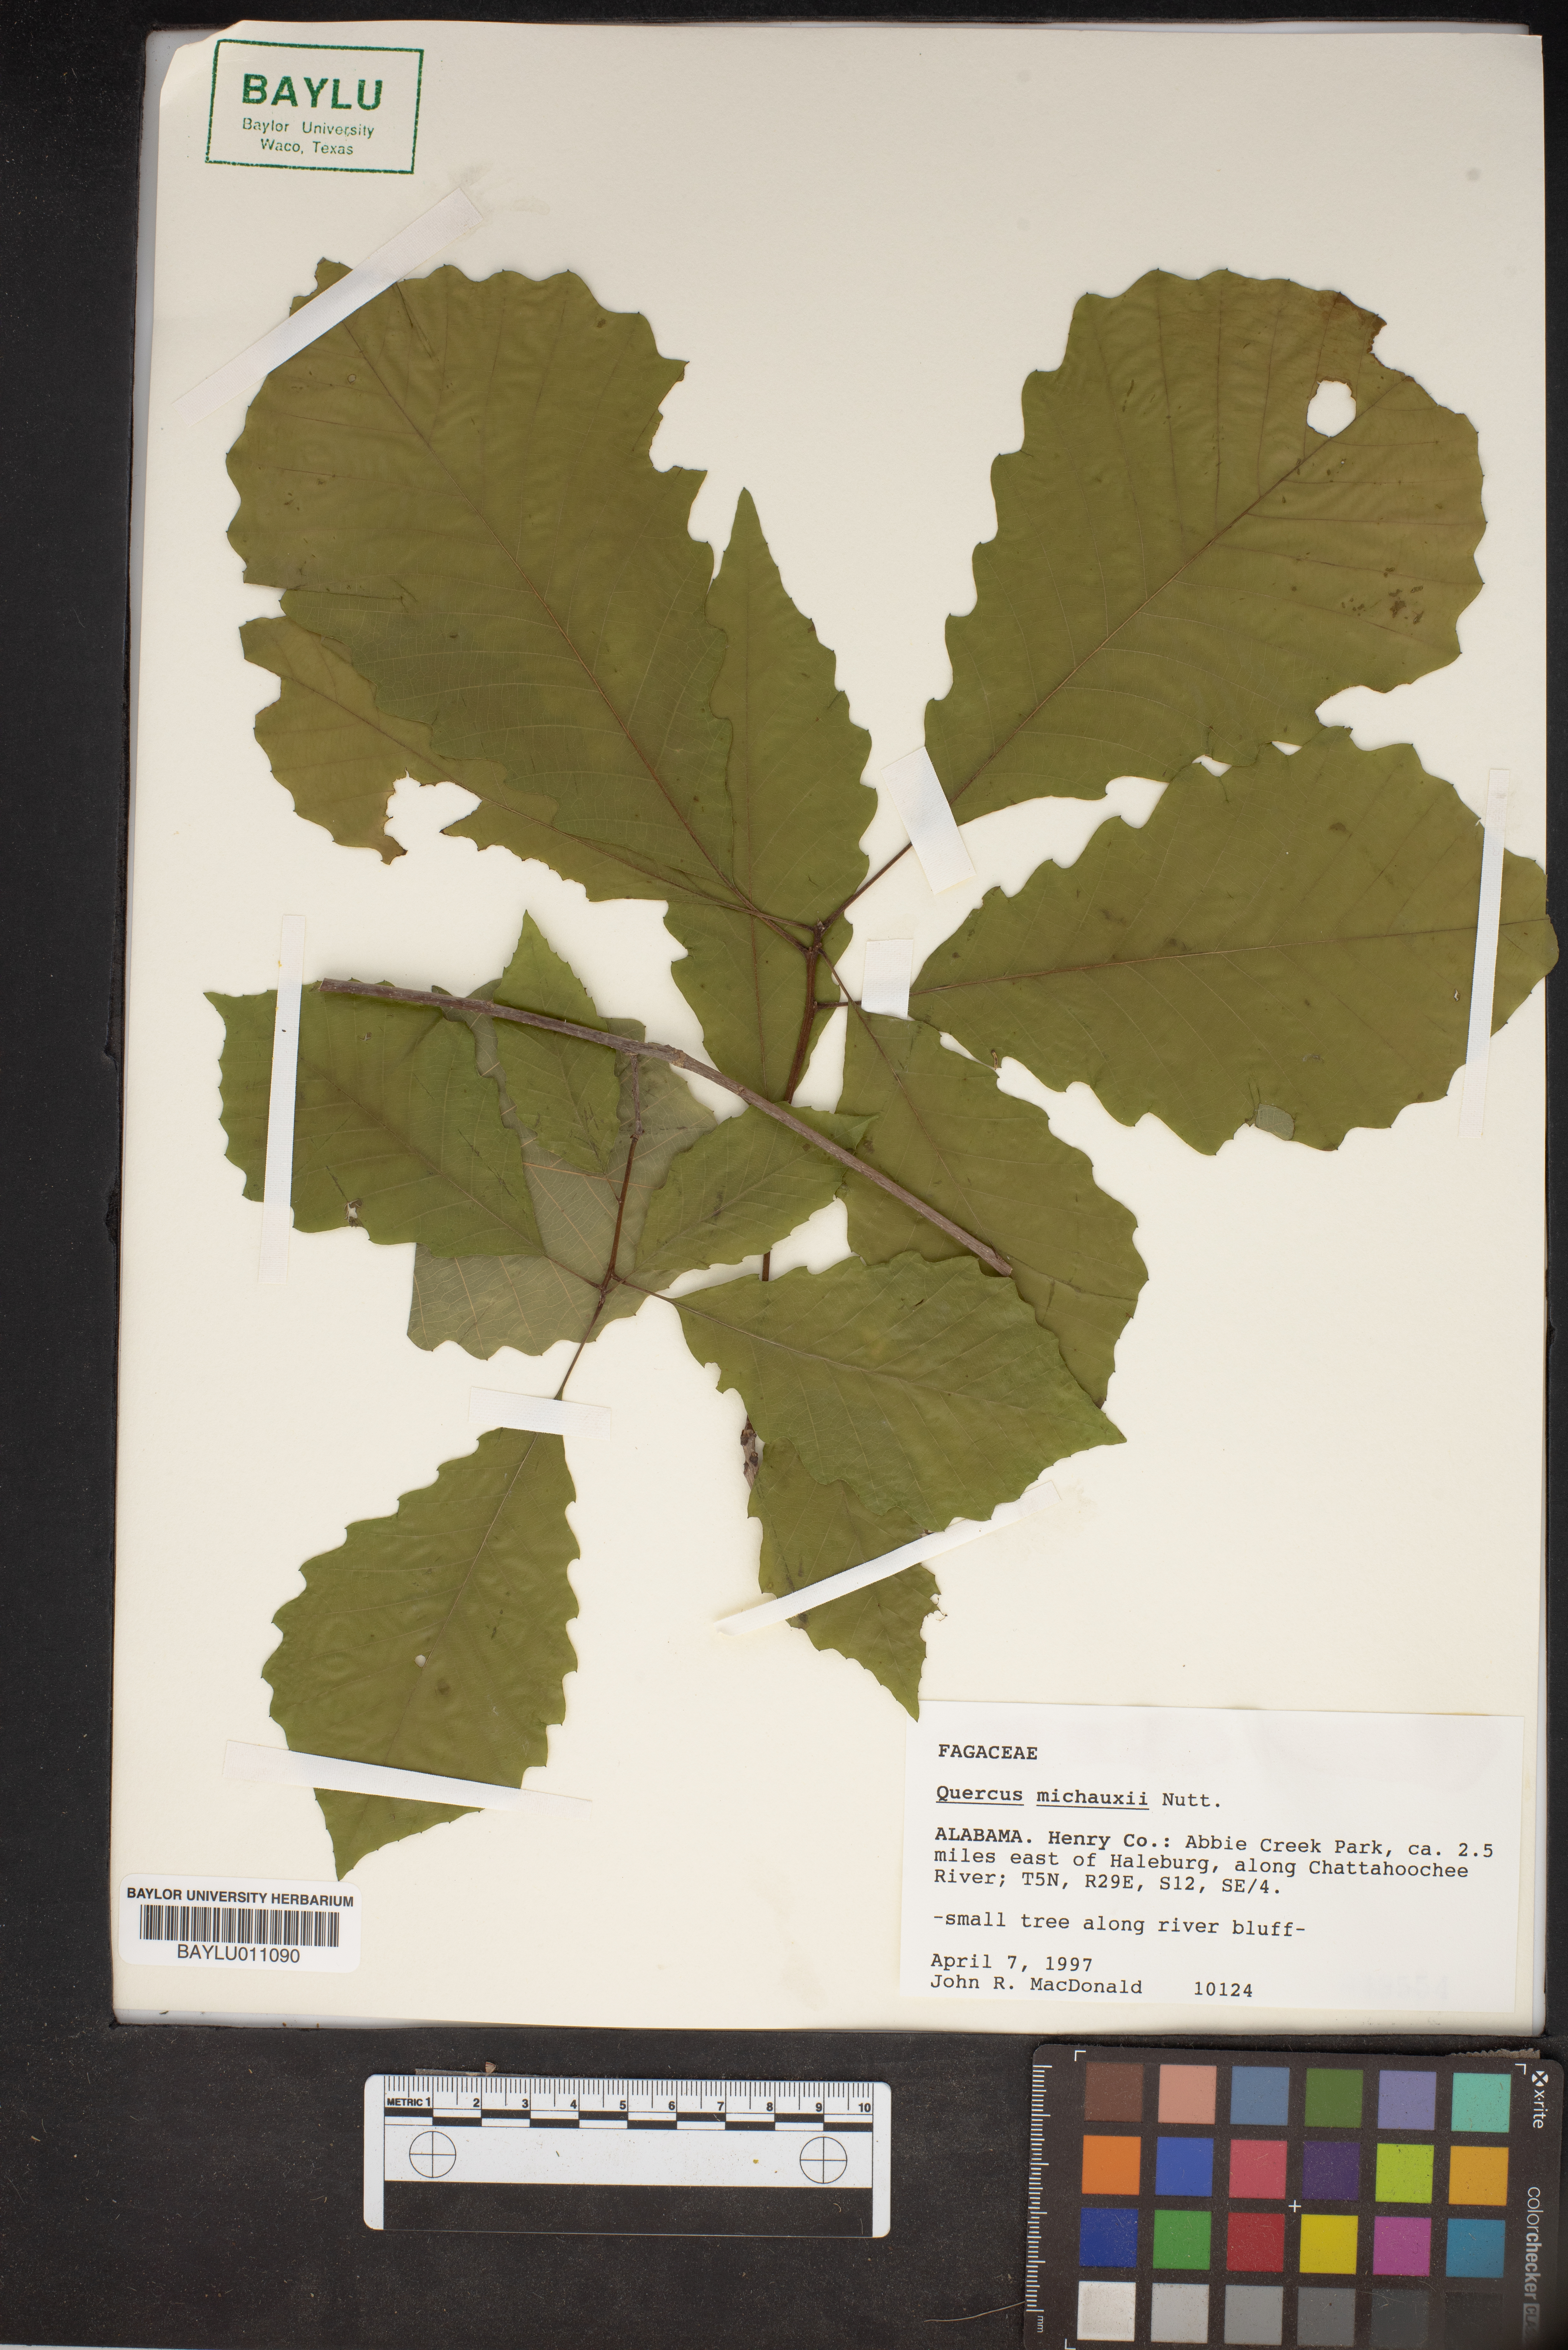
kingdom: Plantae
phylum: Tracheophyta
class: Magnoliopsida
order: Fagales
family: Fagaceae
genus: Quercus
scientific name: Quercus michauxii
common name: Swamp chestnut oak
